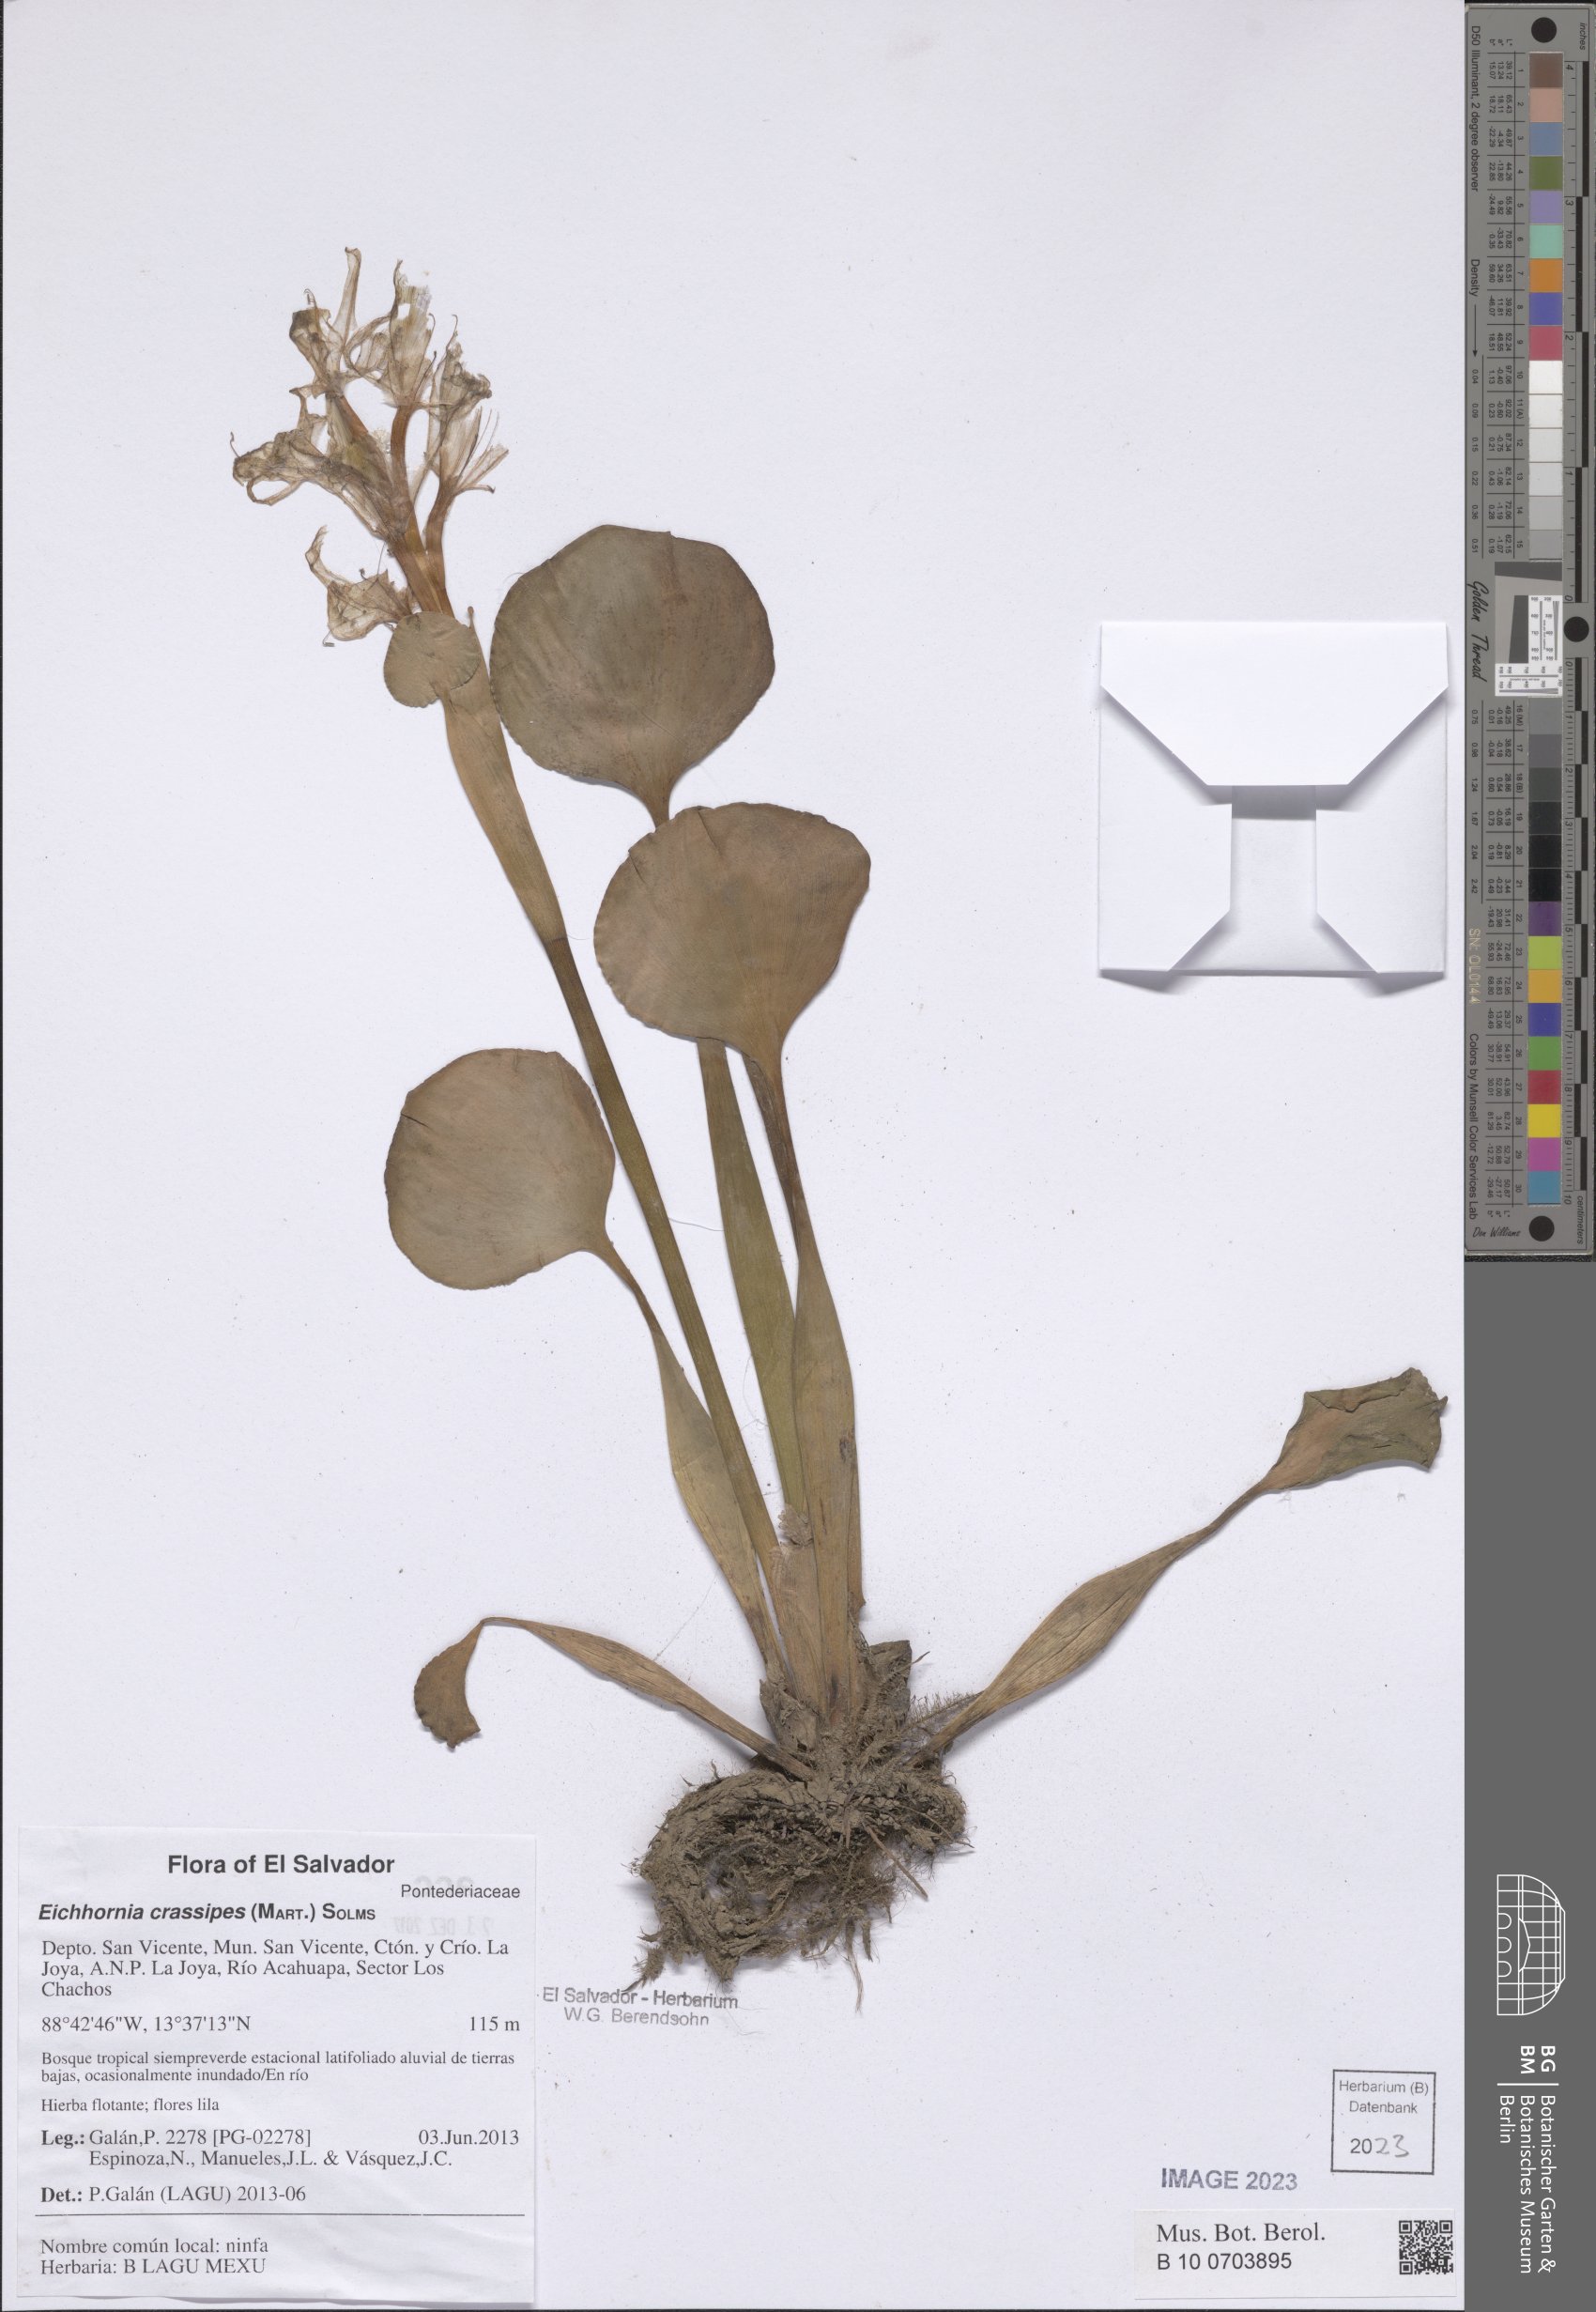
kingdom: Plantae
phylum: Tracheophyta
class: Liliopsida
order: Commelinales
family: Pontederiaceae
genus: Pontederia
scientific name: Pontederia crassipes
